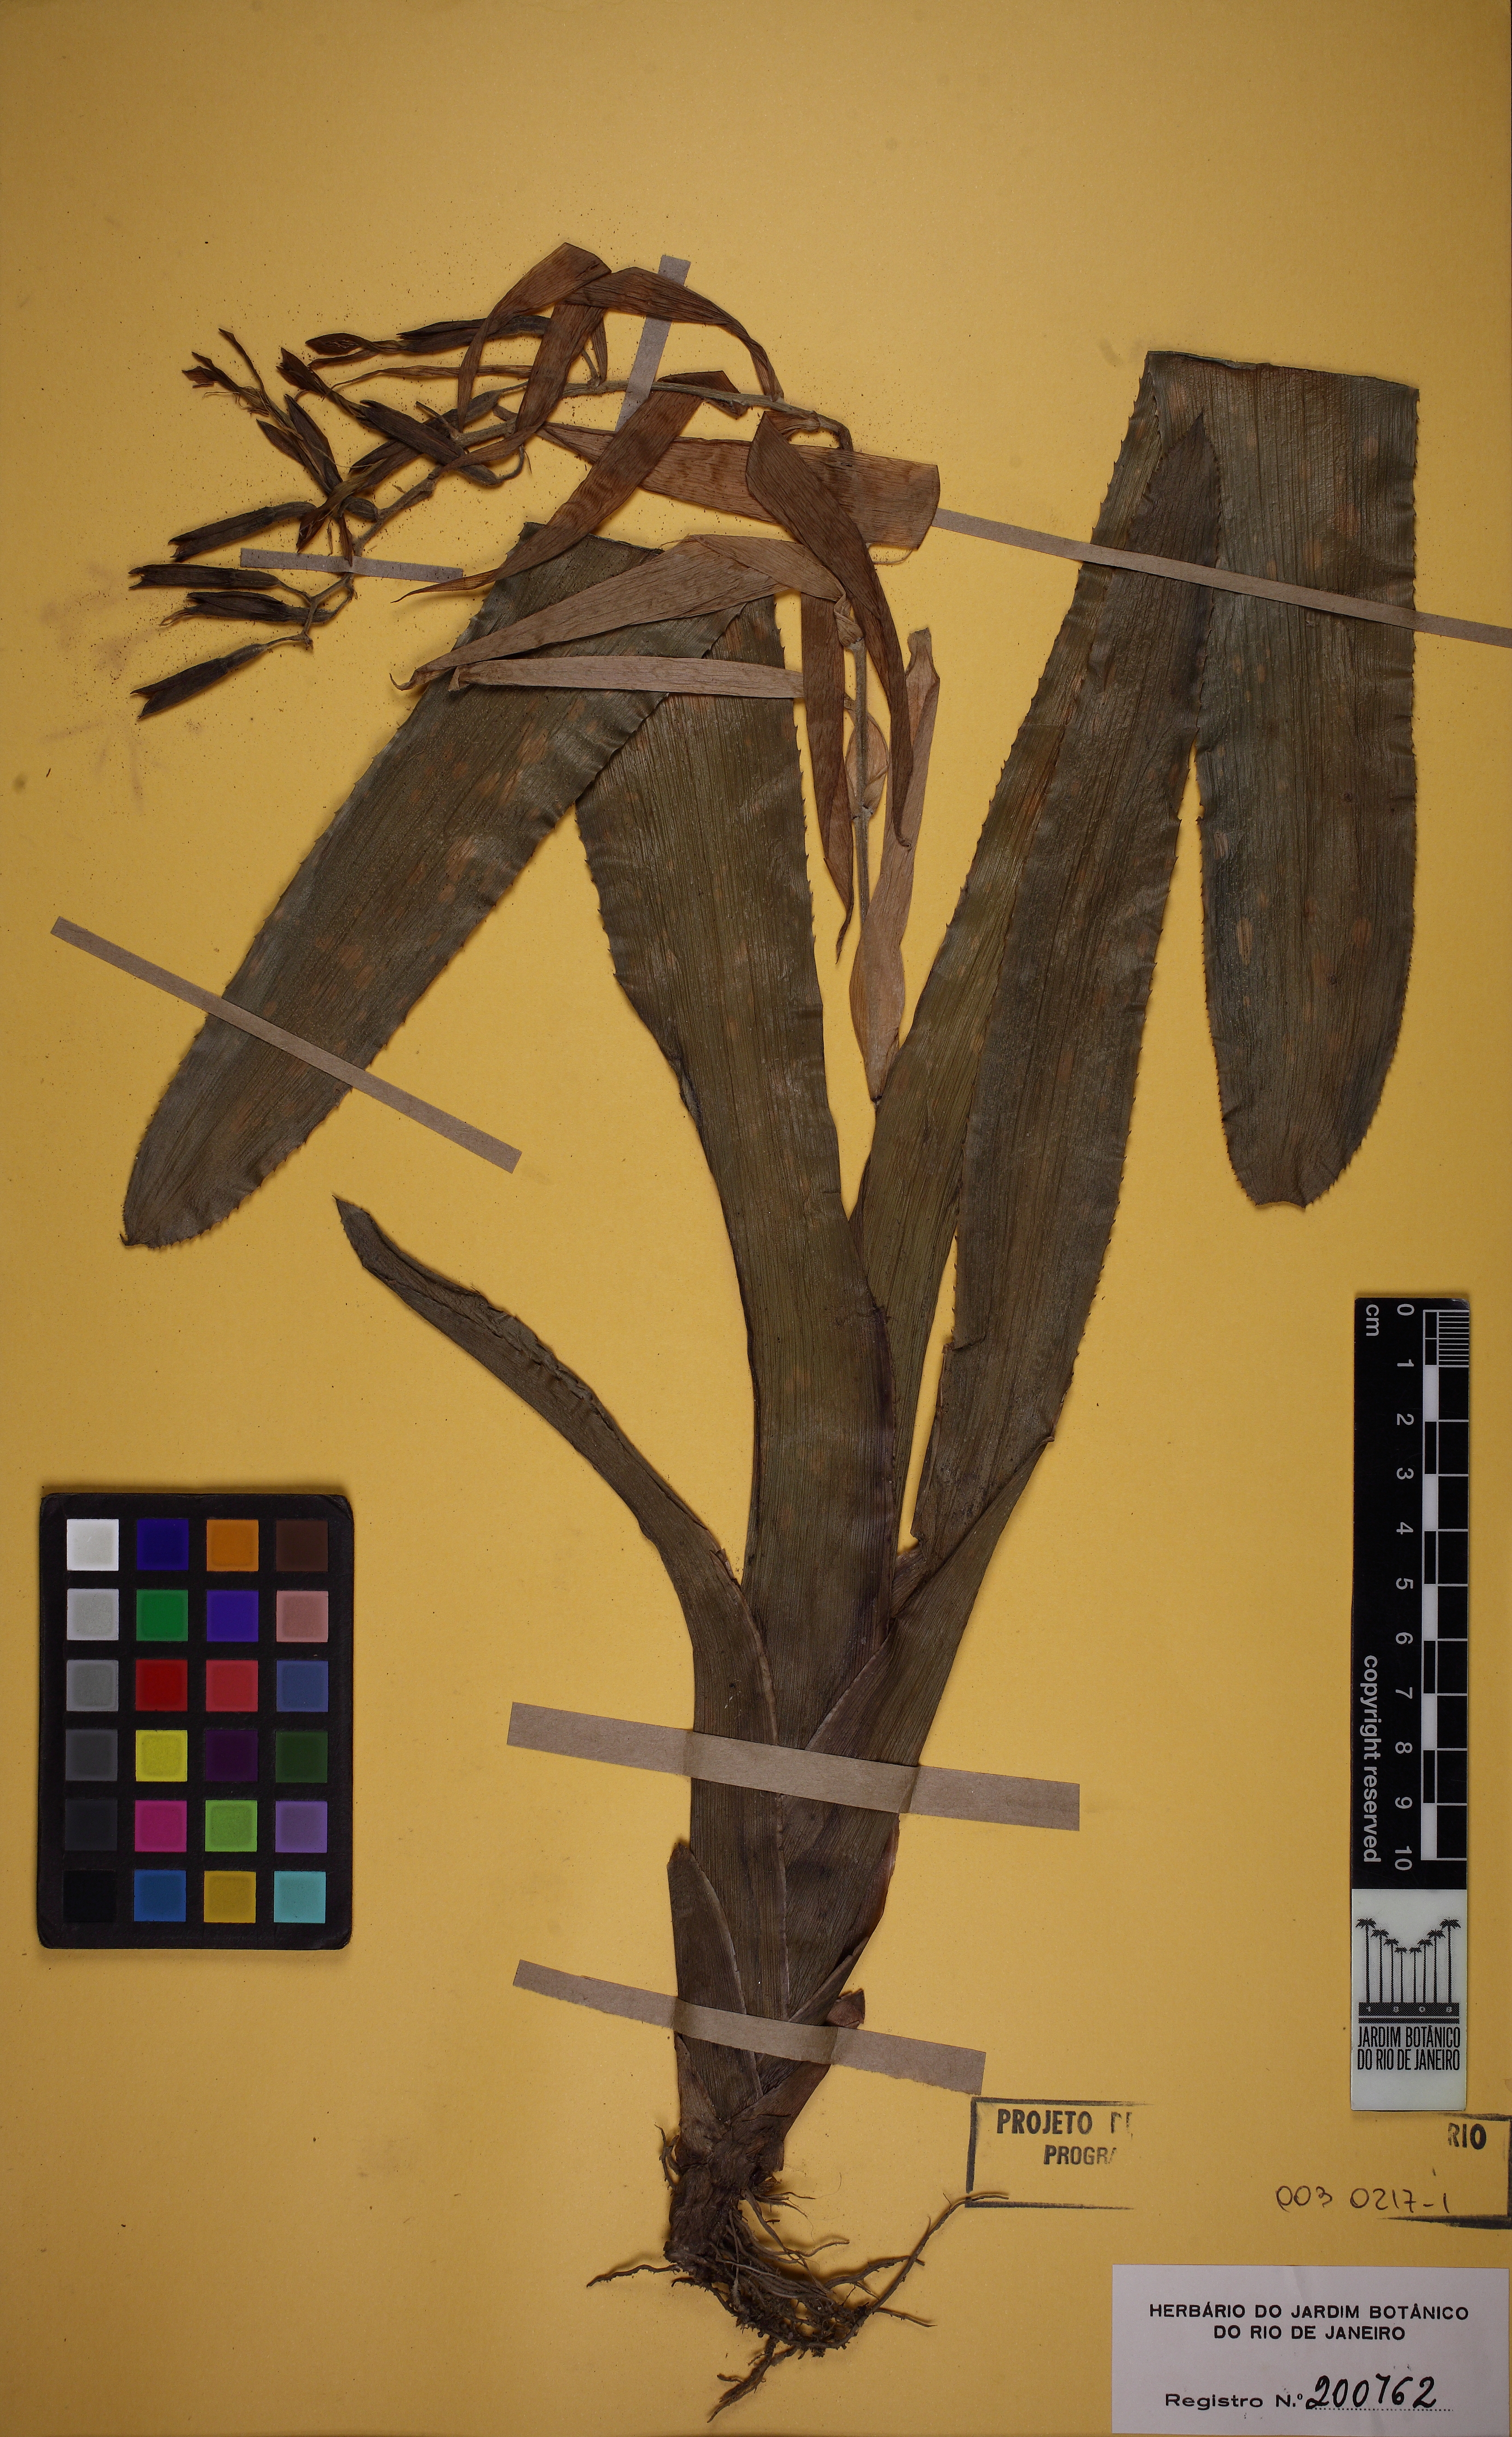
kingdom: Plantae
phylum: Tracheophyta
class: Liliopsida
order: Poales
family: Bromeliaceae
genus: Billbergia
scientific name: Billbergia saundersii
